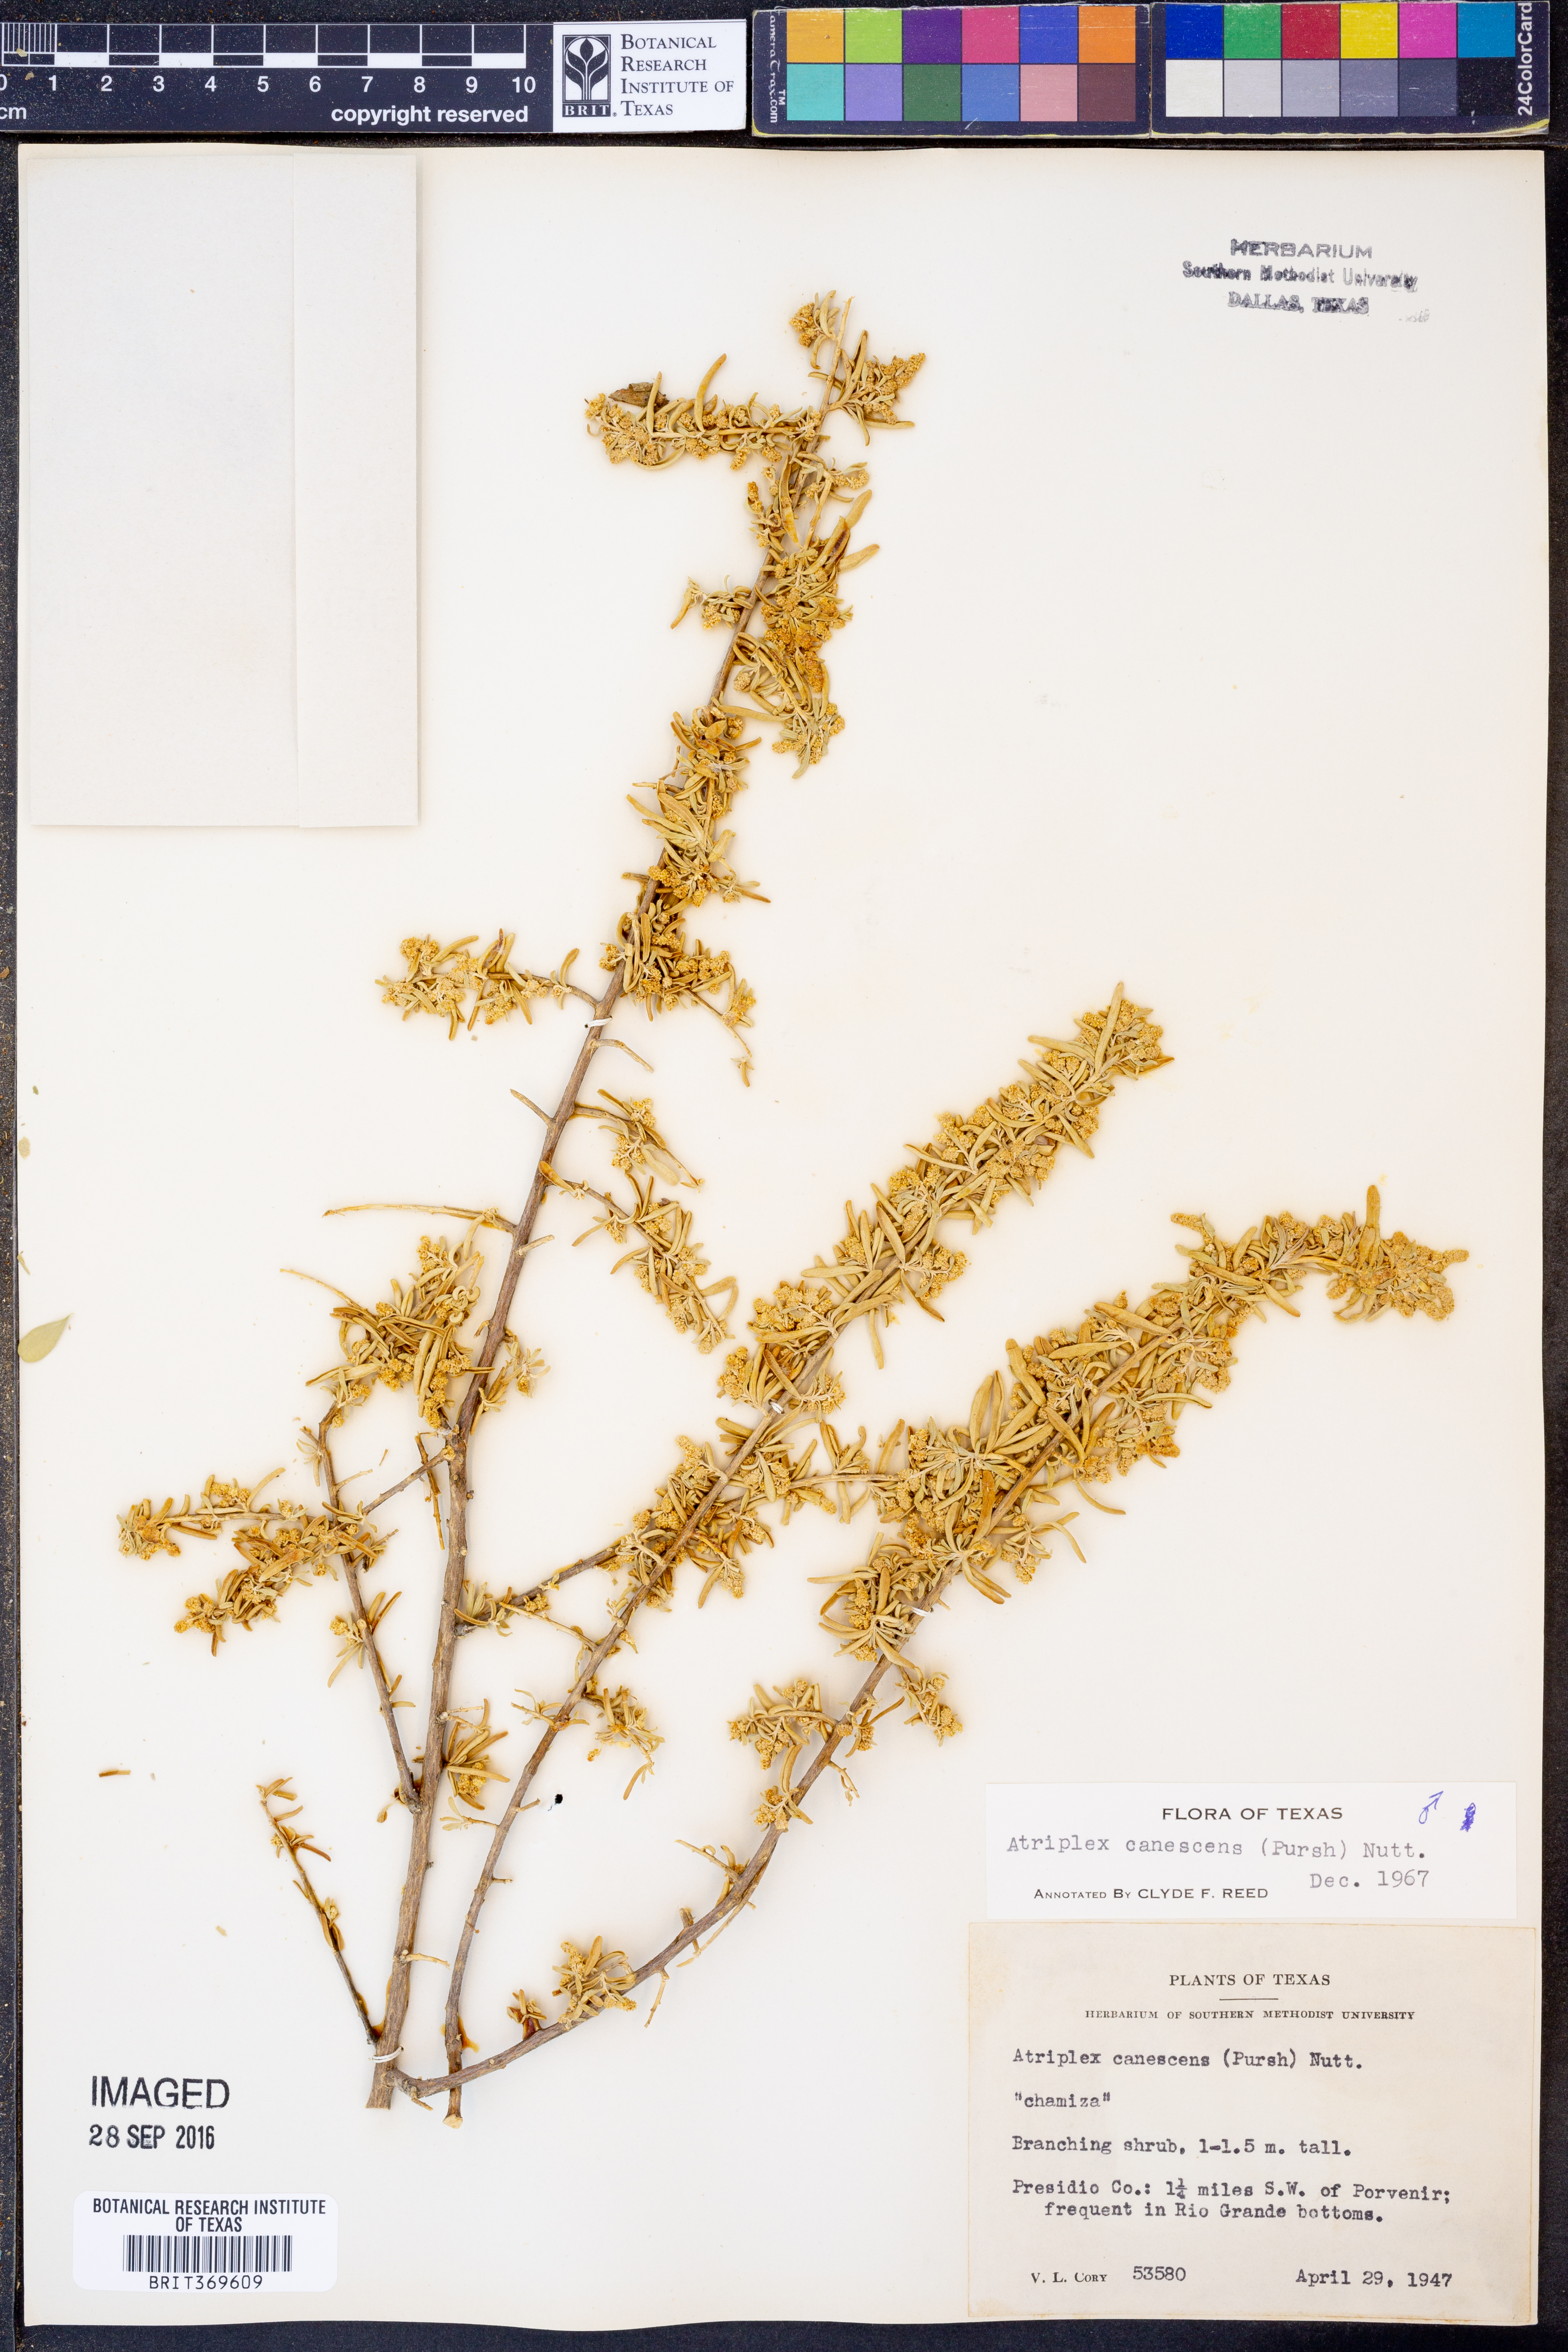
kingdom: Plantae
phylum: Tracheophyta
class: Magnoliopsida
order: Caryophyllales
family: Amaranthaceae
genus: Atriplex
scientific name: Atriplex canescens
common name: Four-wing saltbush
